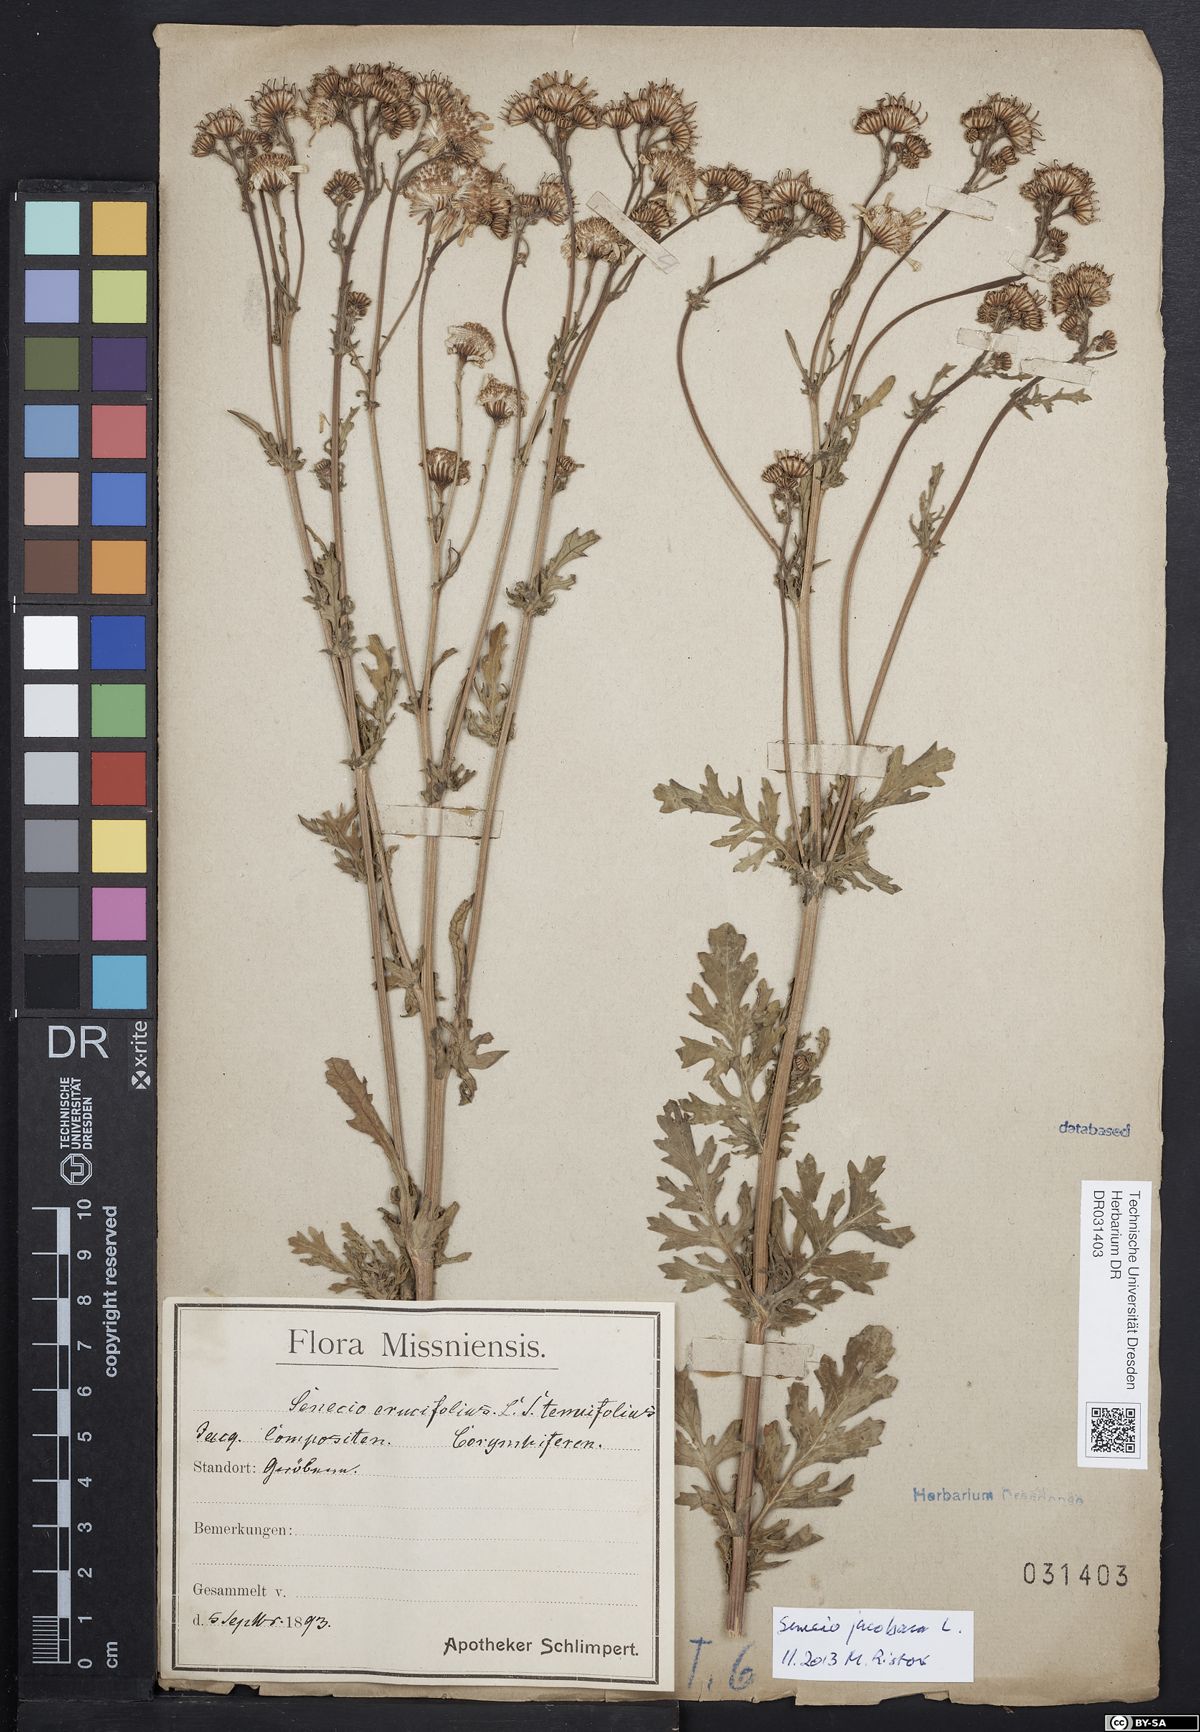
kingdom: Plantae
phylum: Tracheophyta
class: Magnoliopsida
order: Asterales
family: Asteraceae
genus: Jacobaea
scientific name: Jacobaea erucifolia
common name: Hoary ragwort
